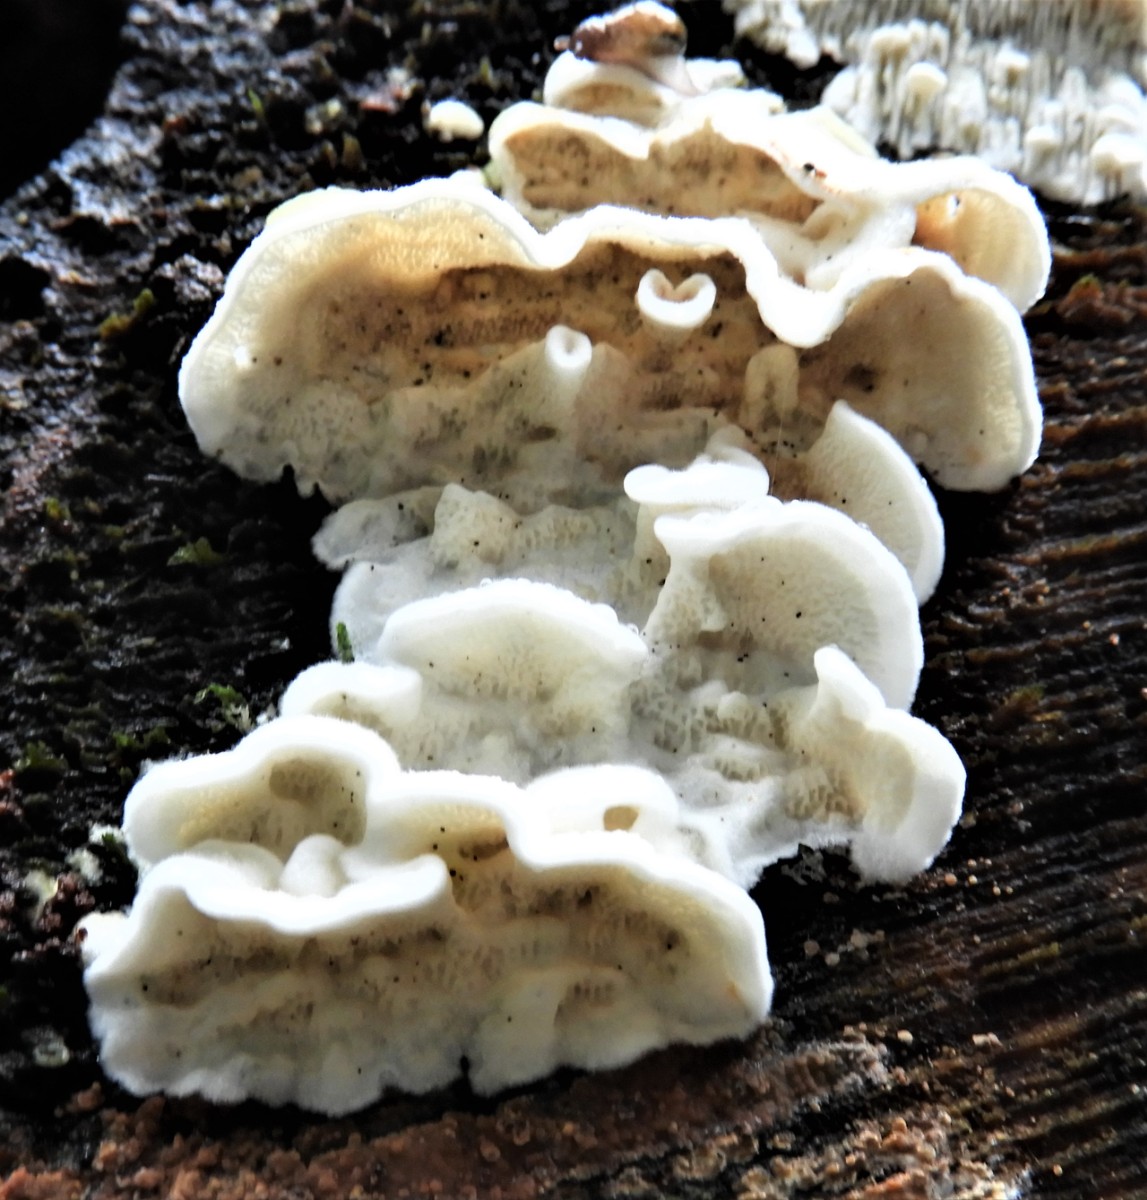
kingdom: Fungi
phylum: Basidiomycota
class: Agaricomycetes
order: Polyporales
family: Irpicaceae
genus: Byssomerulius
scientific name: Byssomerulius corium
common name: læder-åresvamp
